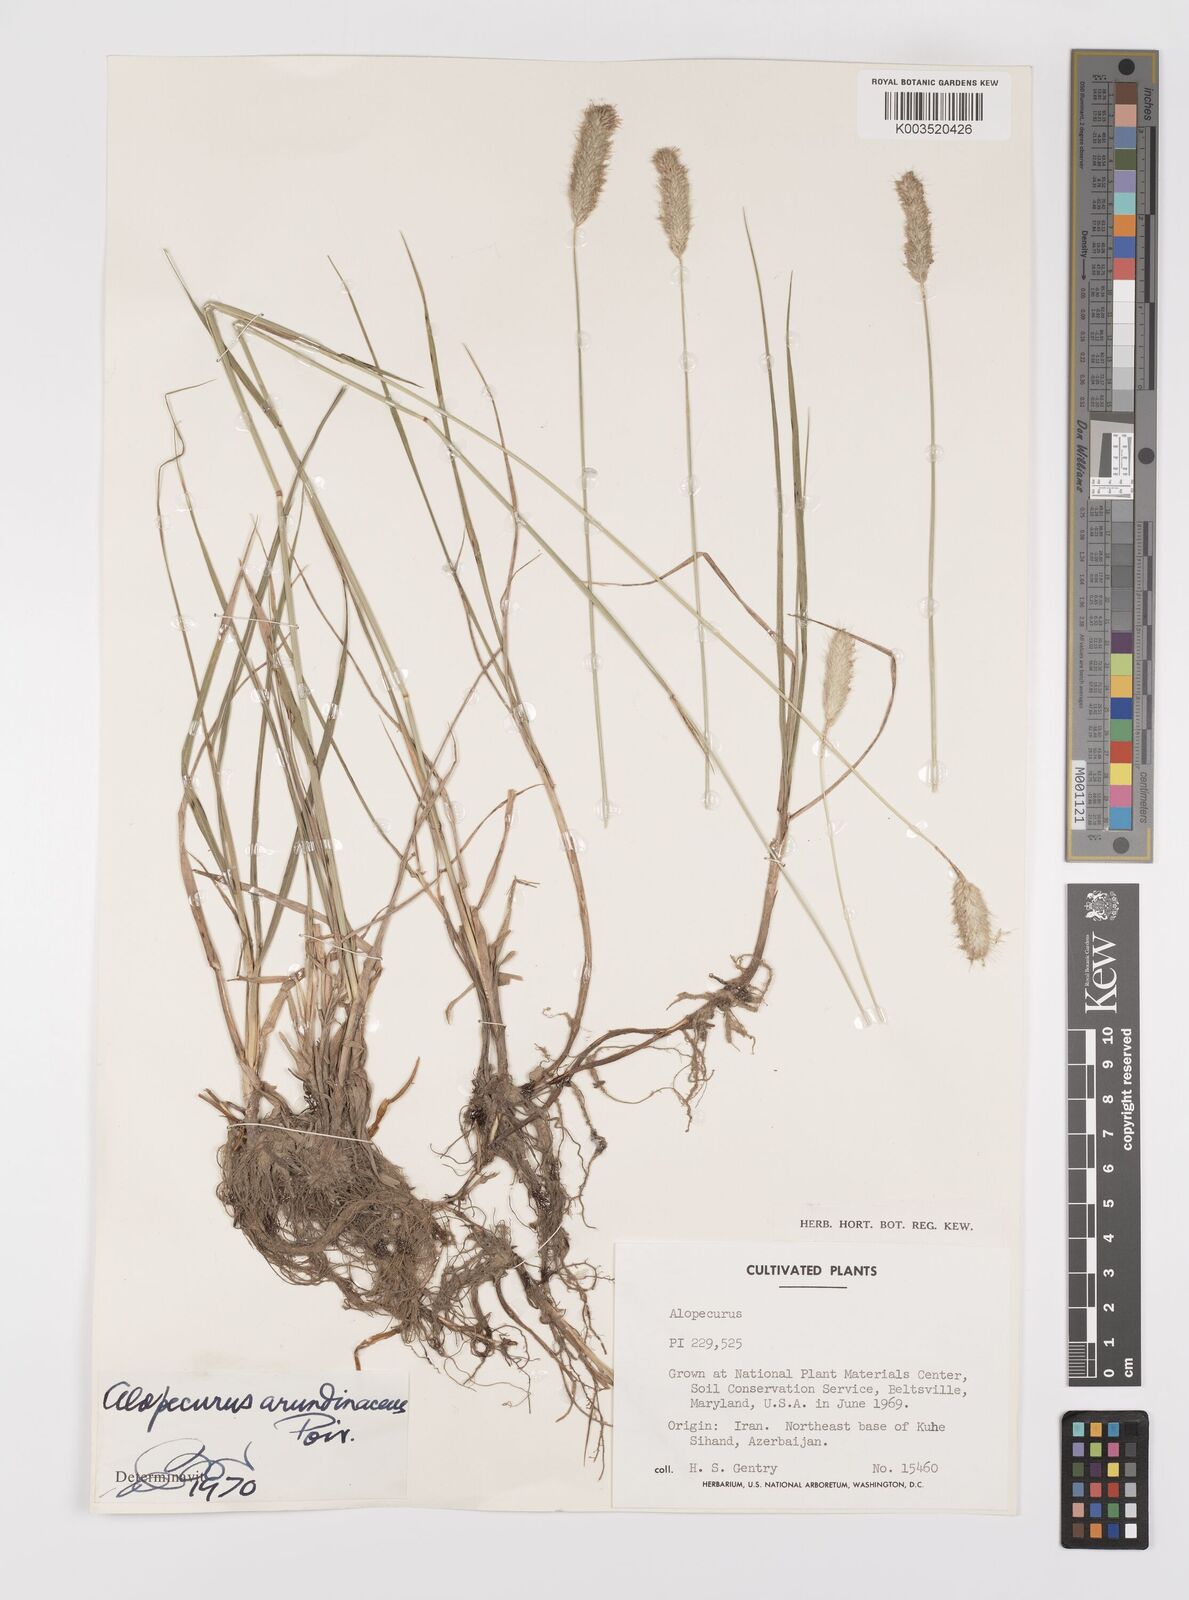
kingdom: Plantae
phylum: Tracheophyta
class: Liliopsida
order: Poales
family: Poaceae
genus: Alopecurus
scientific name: Alopecurus arundinaceus
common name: Creeping meadow foxtail
